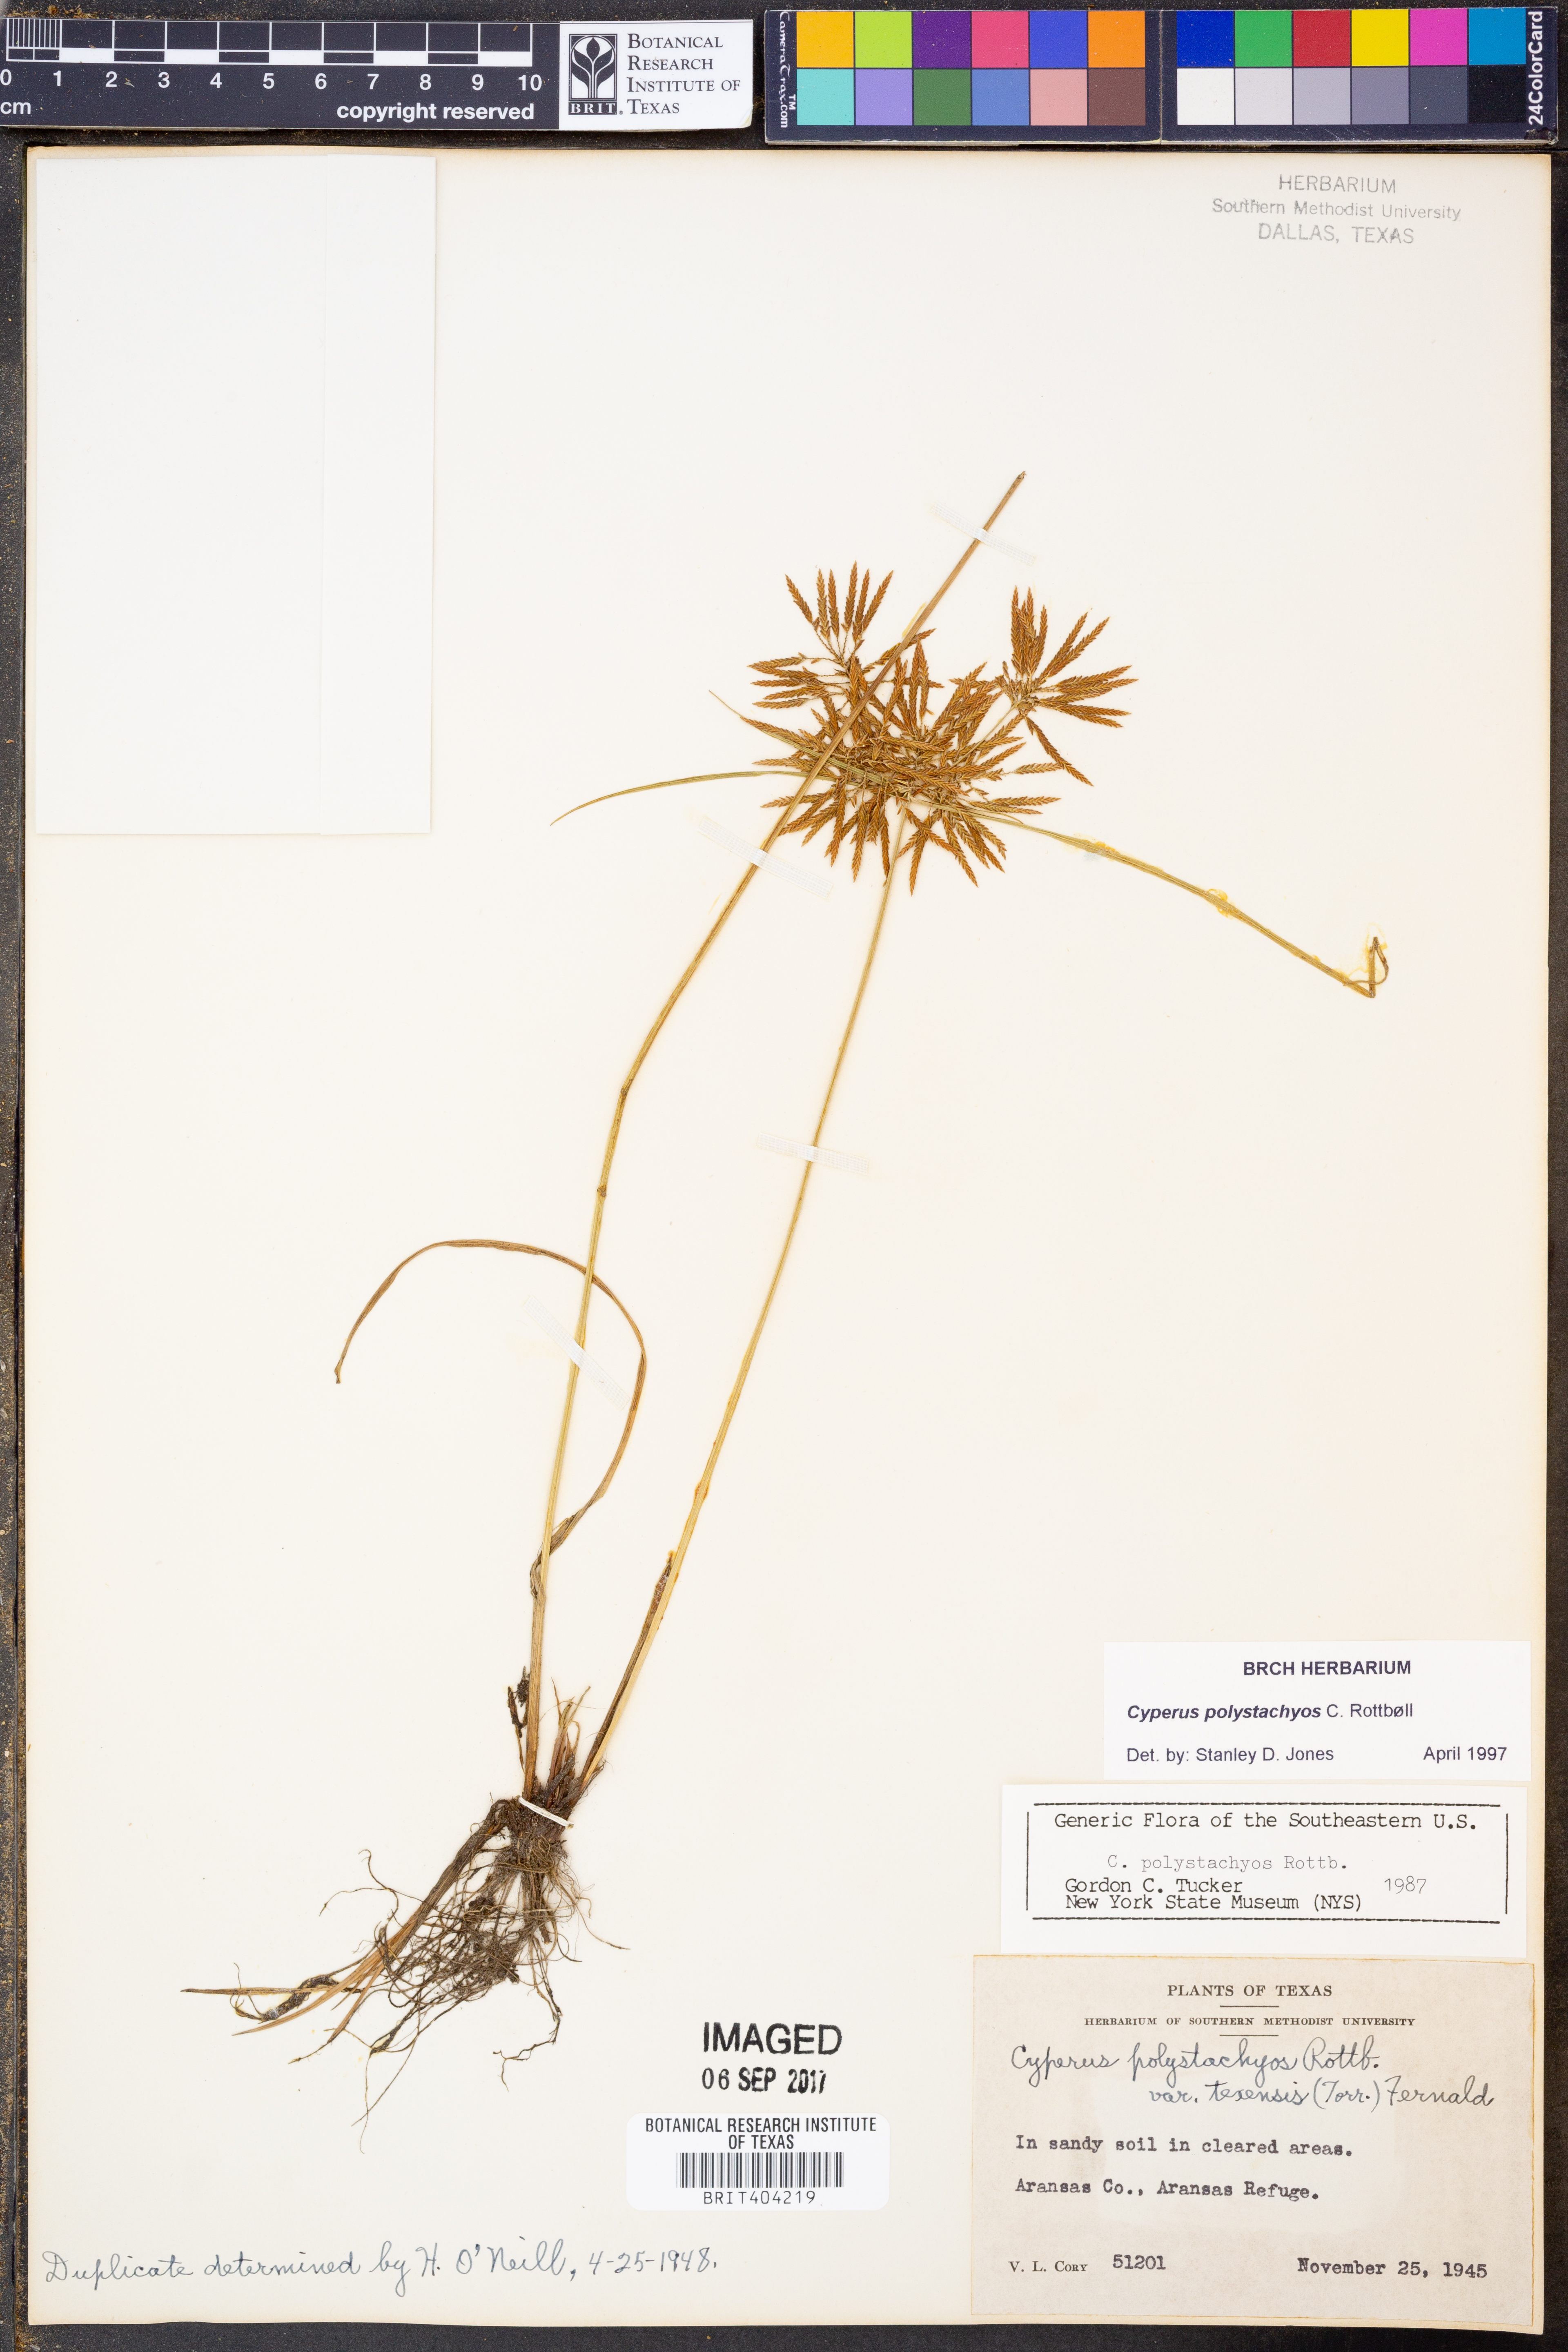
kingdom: Plantae
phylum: Tracheophyta
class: Liliopsida
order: Poales
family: Cyperaceae
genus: Cyperus
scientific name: Cyperus polystachyos
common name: Bunchy flat sedge
